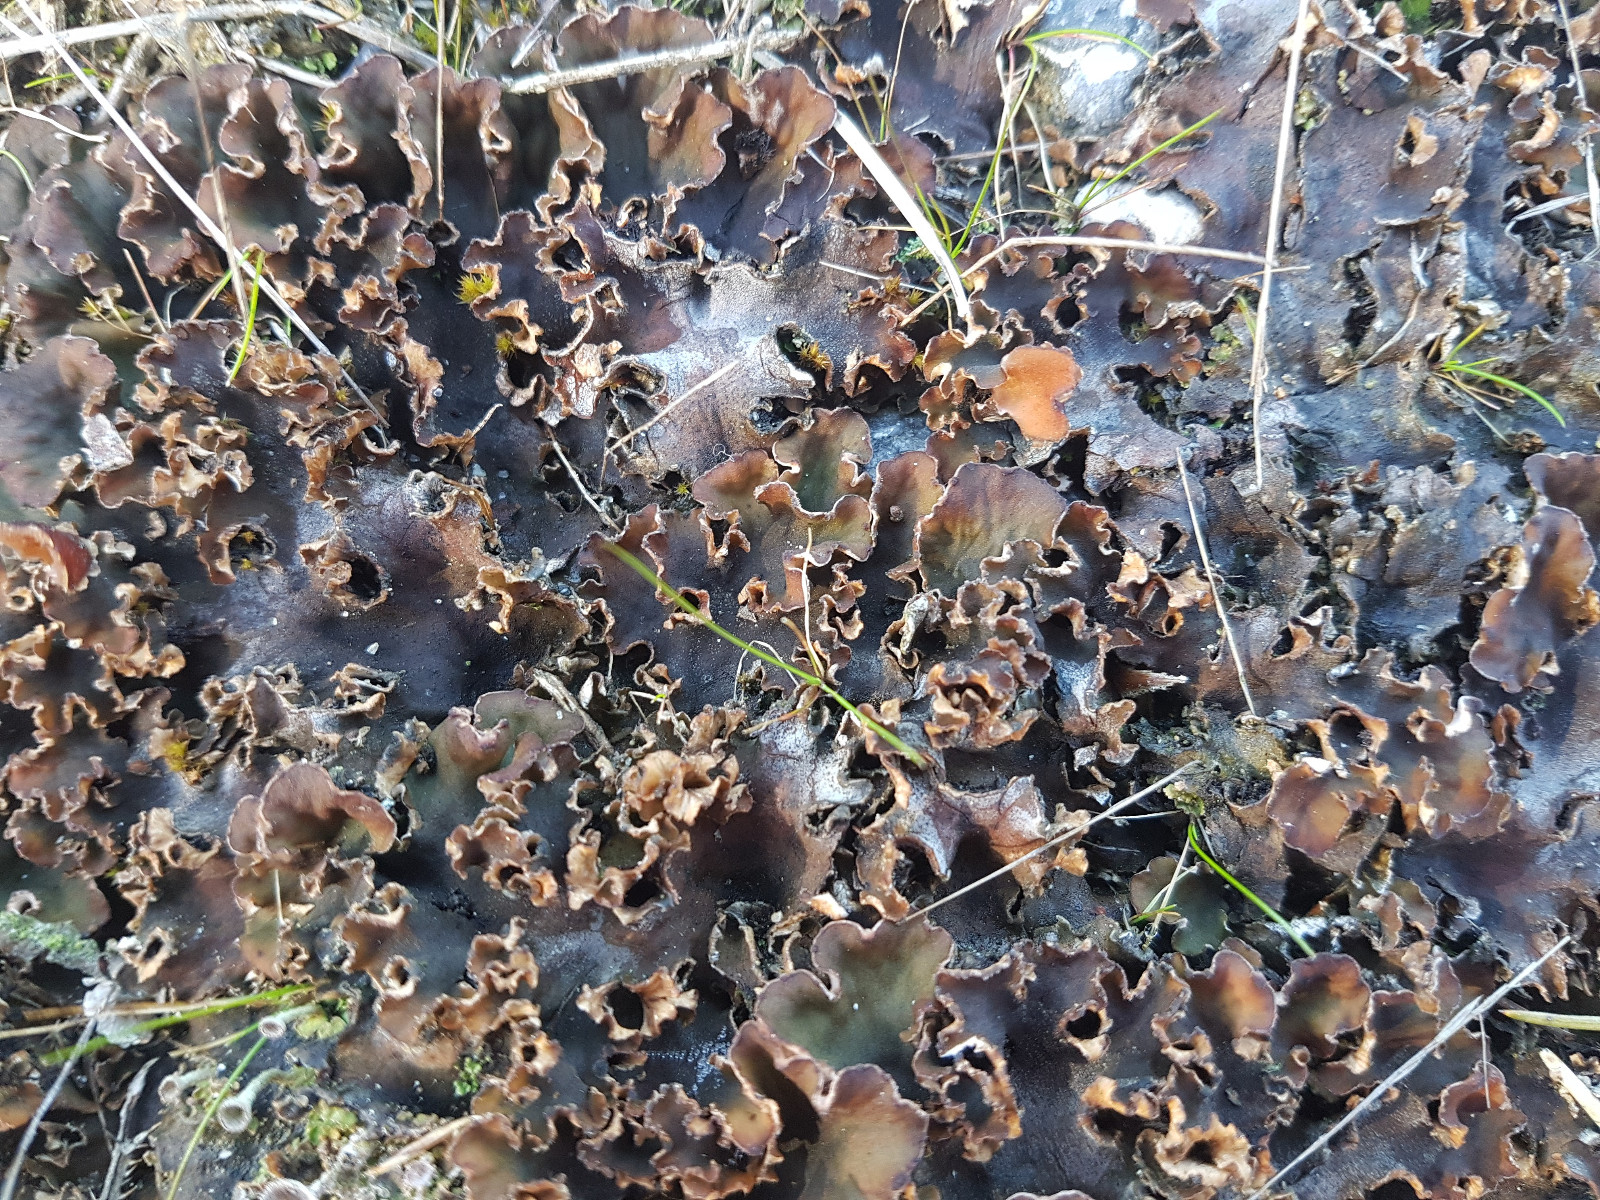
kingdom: Fungi
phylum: Ascomycota
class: Lecanoromycetes
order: Peltigerales
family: Peltigeraceae
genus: Peltigera
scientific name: Peltigera rufescens
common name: brun skjoldlav
